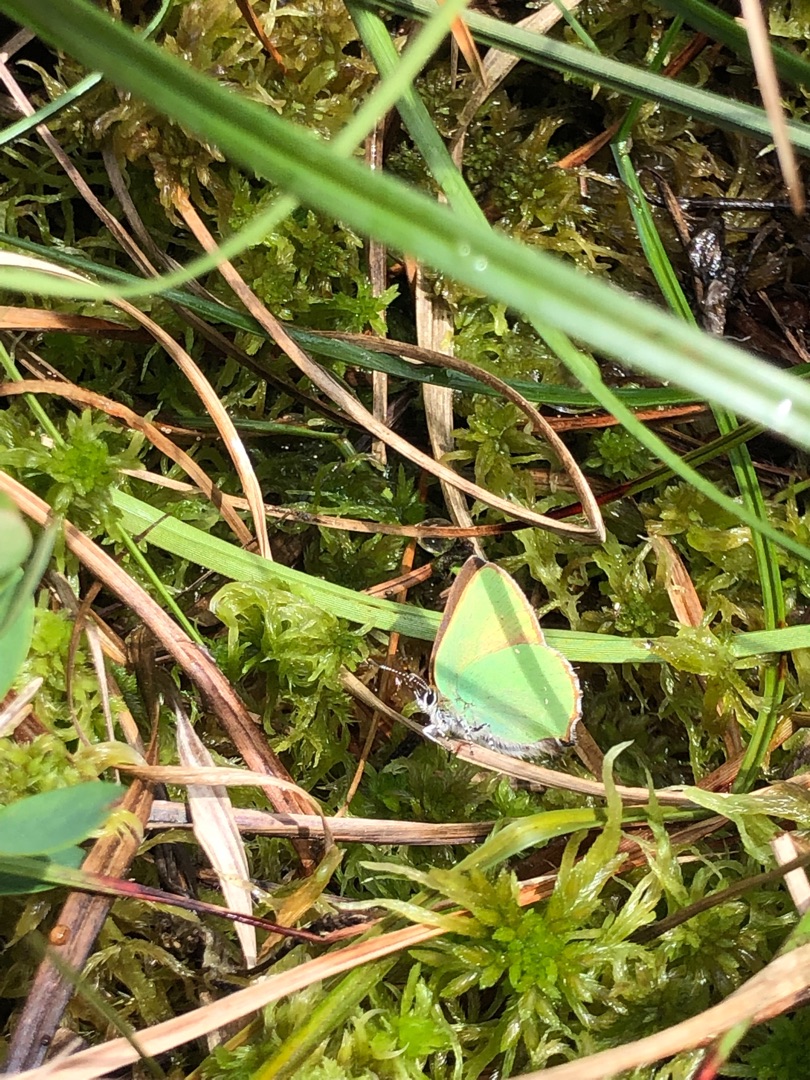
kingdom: Animalia
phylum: Arthropoda
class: Insecta
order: Lepidoptera
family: Lycaenidae
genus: Callophrys
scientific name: Callophrys rubi
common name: Grøn busksommerfugl
